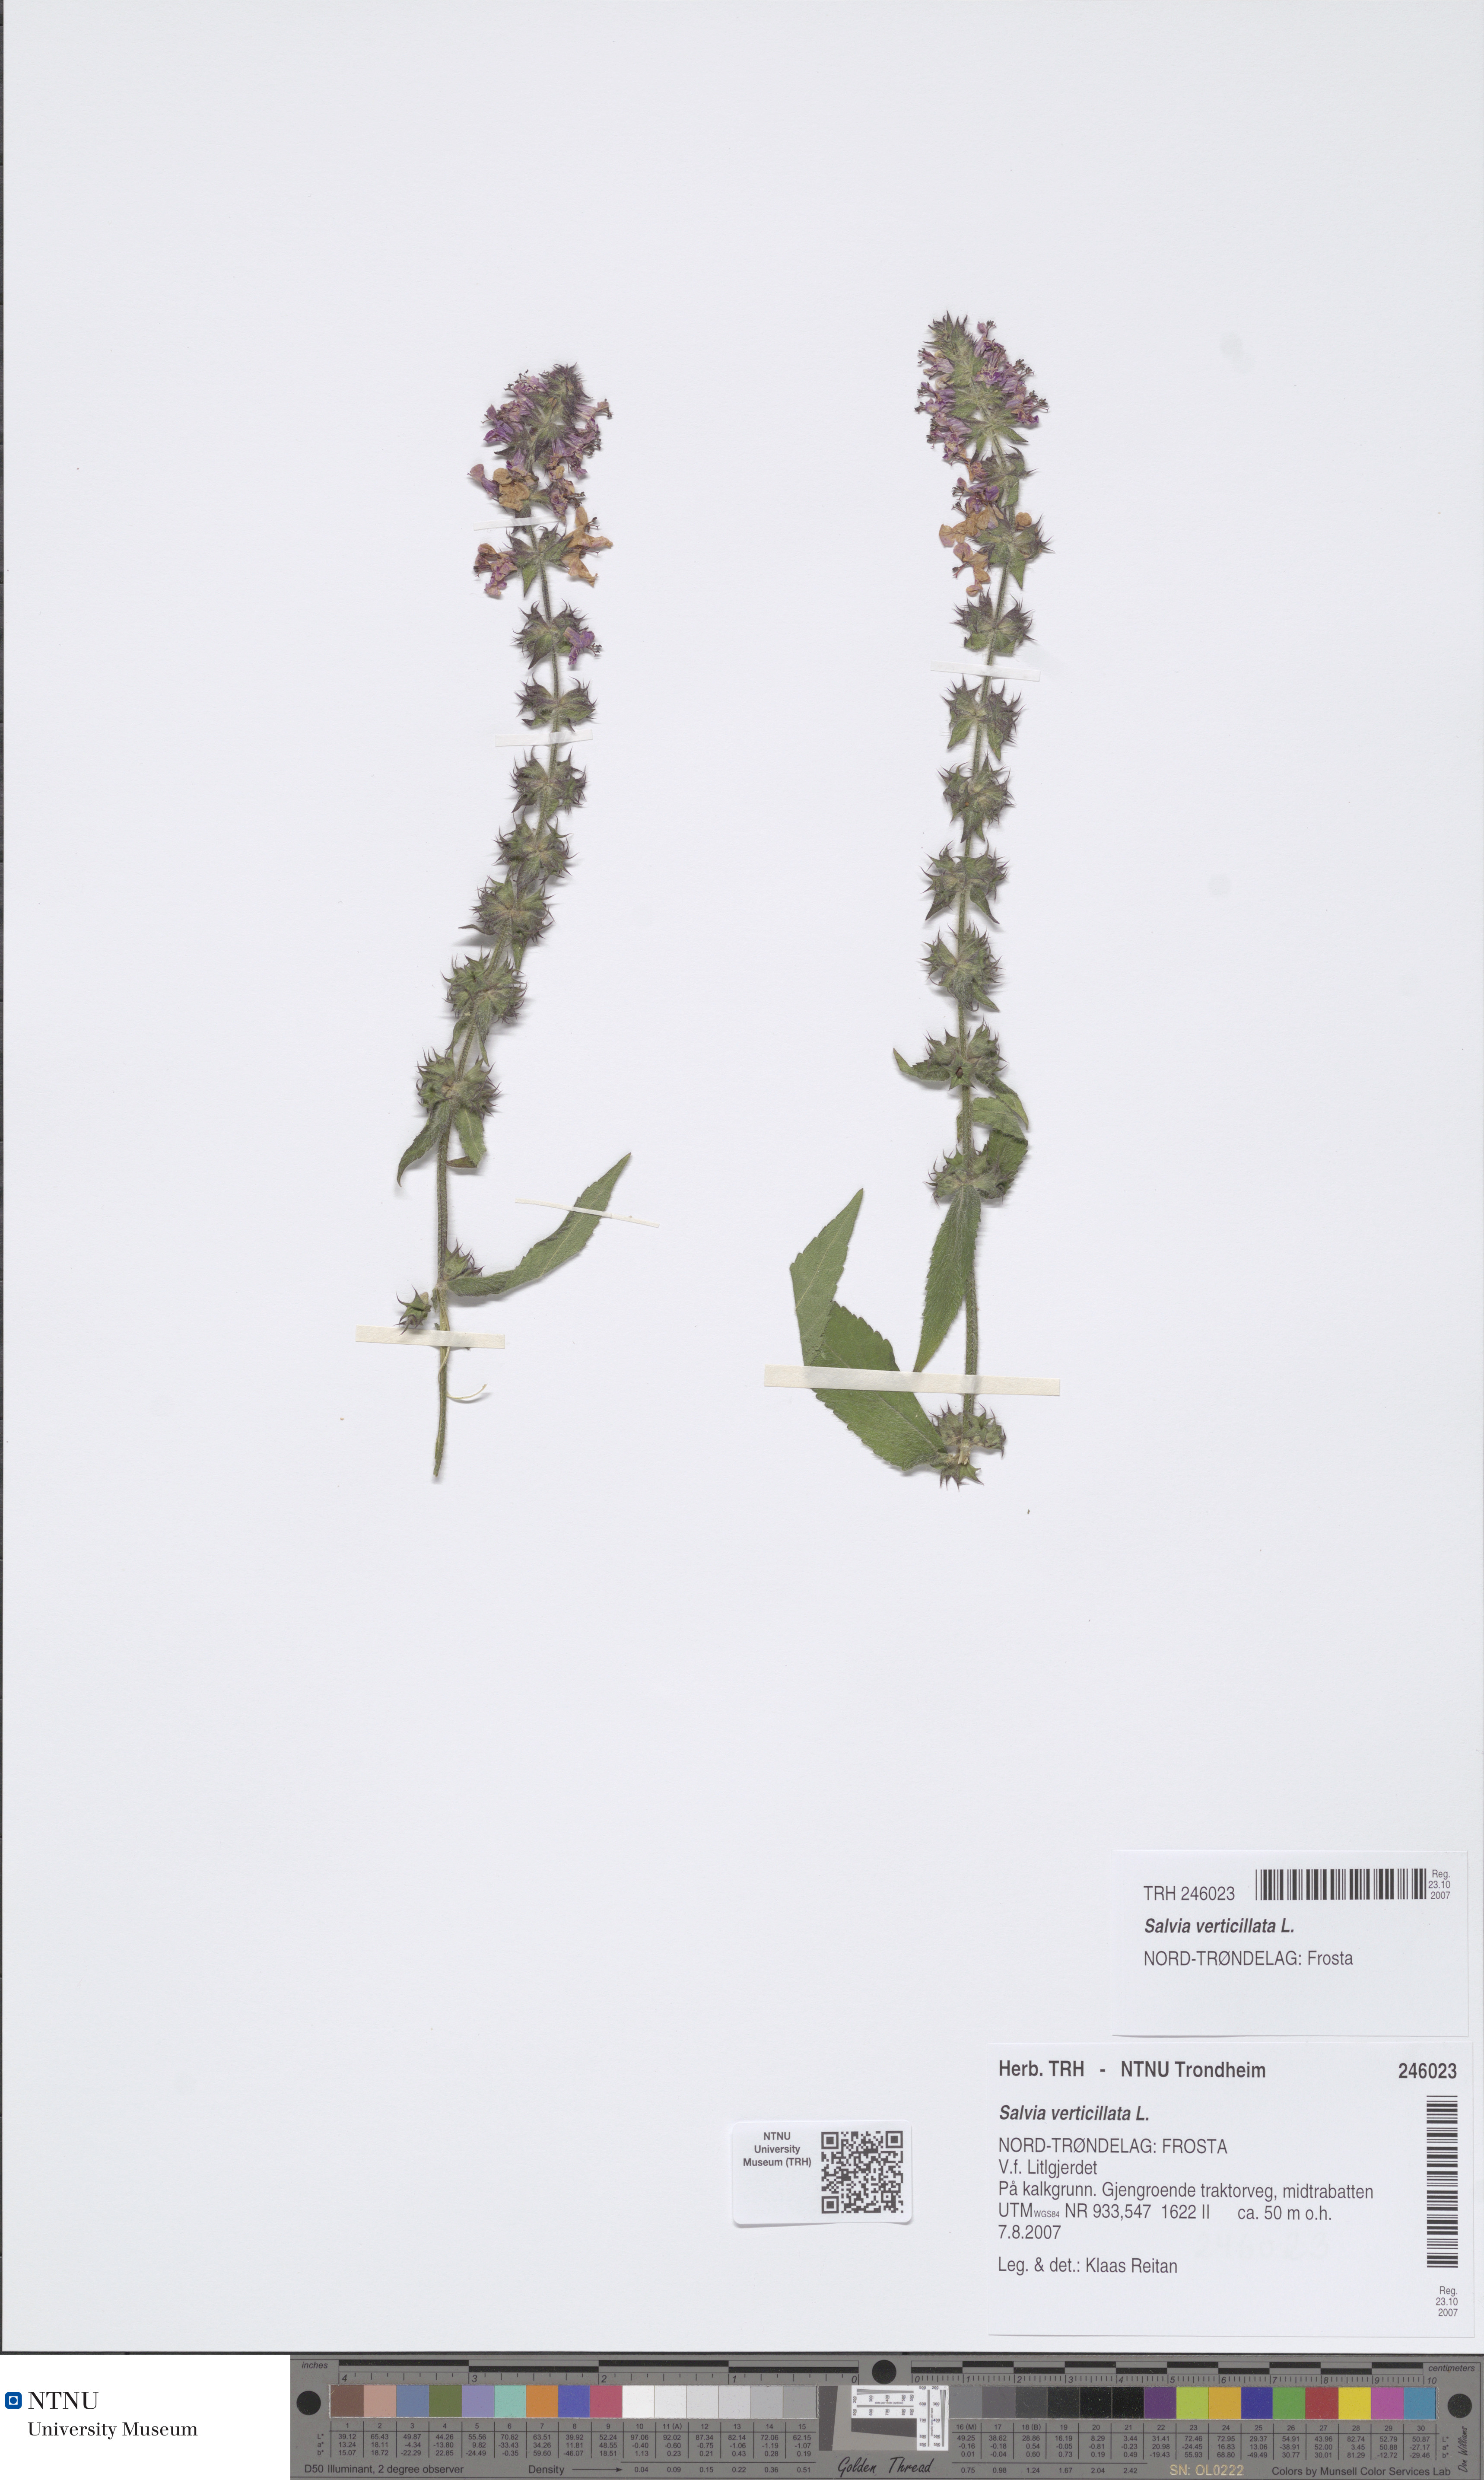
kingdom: Plantae
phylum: Tracheophyta
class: Magnoliopsida
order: Lamiales
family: Lamiaceae
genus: Salvia
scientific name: Salvia verticillata
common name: Whorled clary
